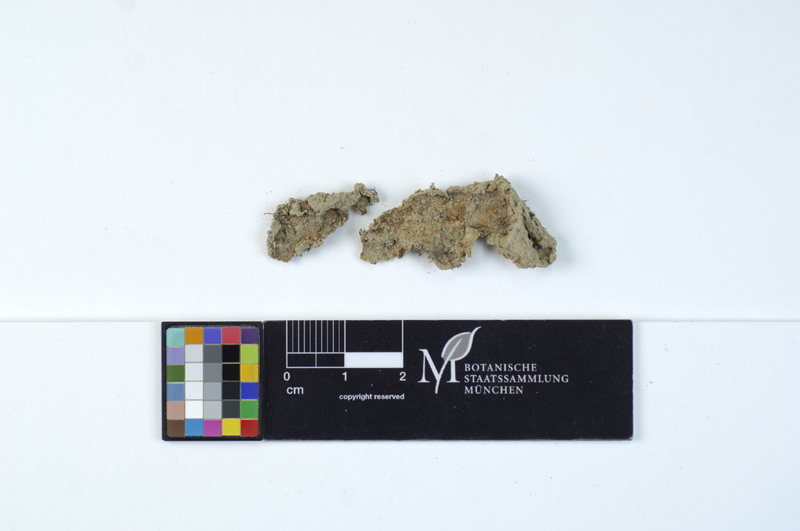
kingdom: Fungi
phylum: Basidiomycota
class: Agaricomycetes
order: Polyporales
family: Meruliaceae
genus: Physisporinus
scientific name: Physisporinus vitreus
